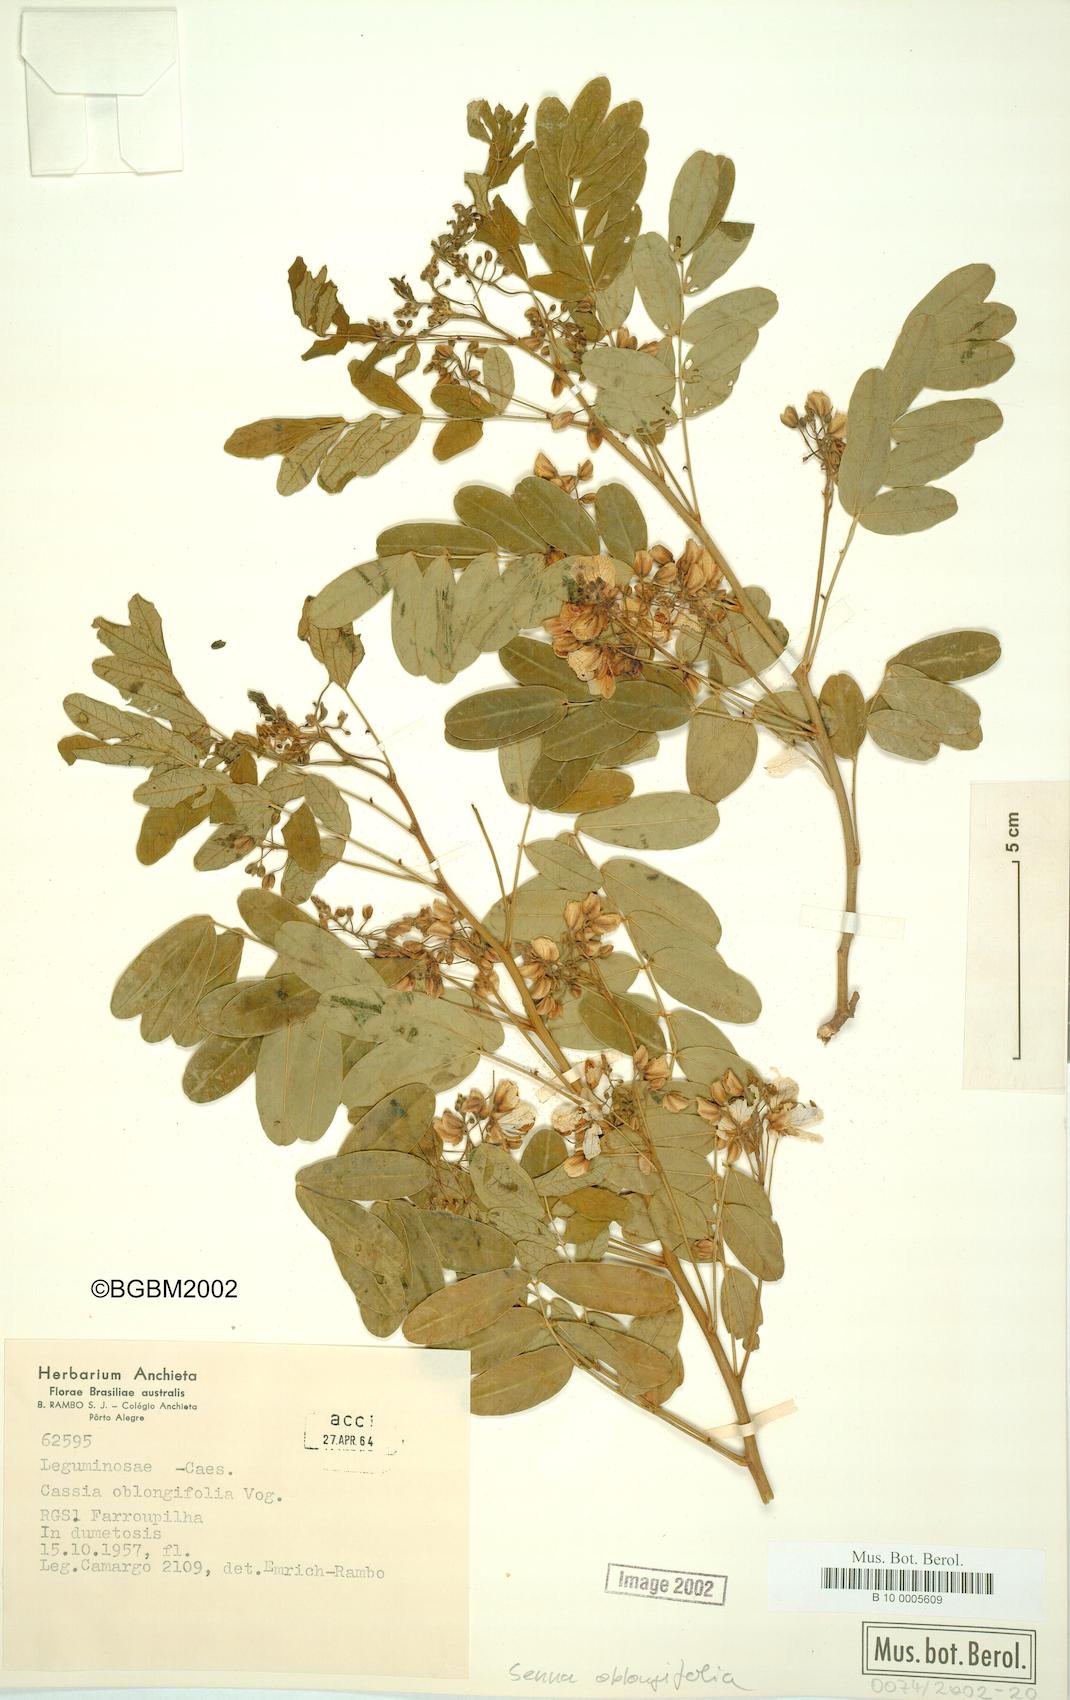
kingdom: Plantae
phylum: Tracheophyta
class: Magnoliopsida
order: Fabales
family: Fabaceae
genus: Senna
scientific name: Senna oblongifolia
